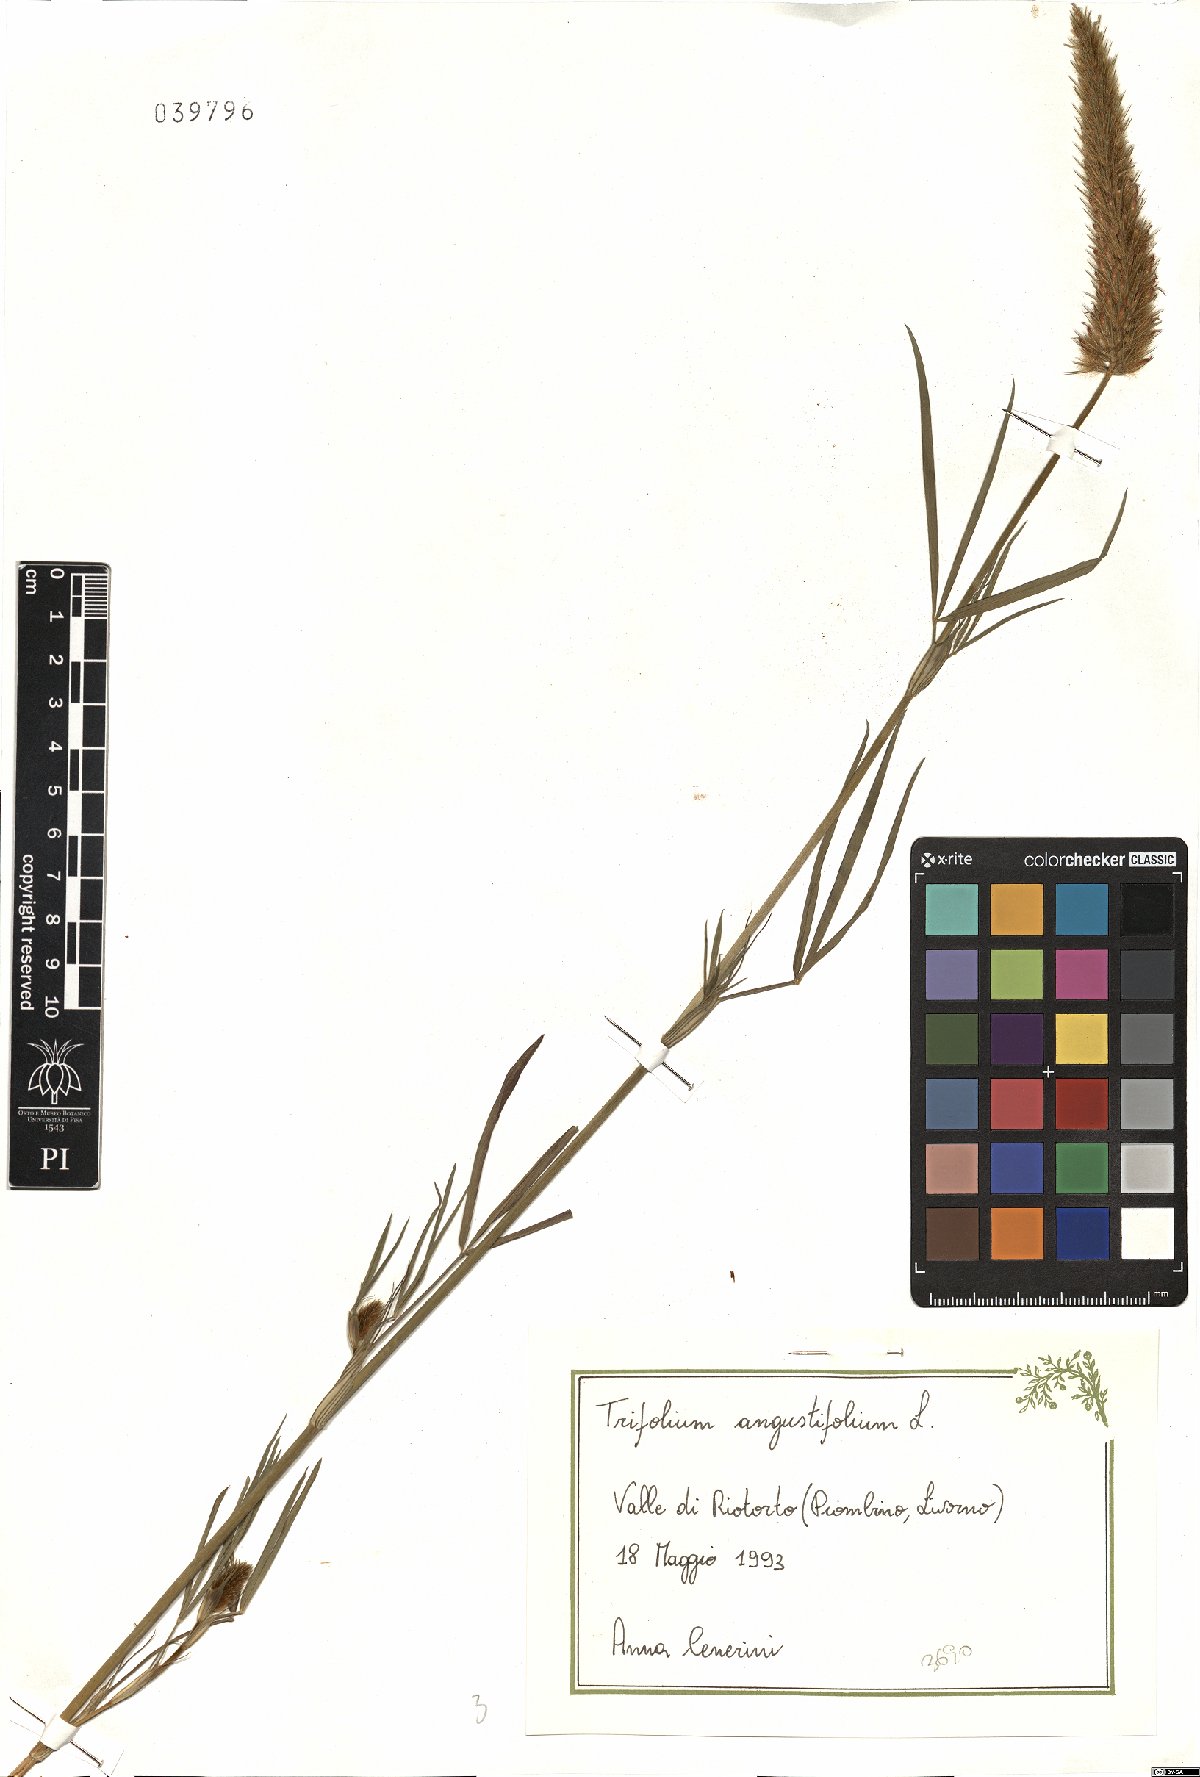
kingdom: Plantae
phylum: Tracheophyta
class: Magnoliopsida
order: Fabales
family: Fabaceae
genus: Trifolium
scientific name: Trifolium angustifolium
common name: Narrow clover
